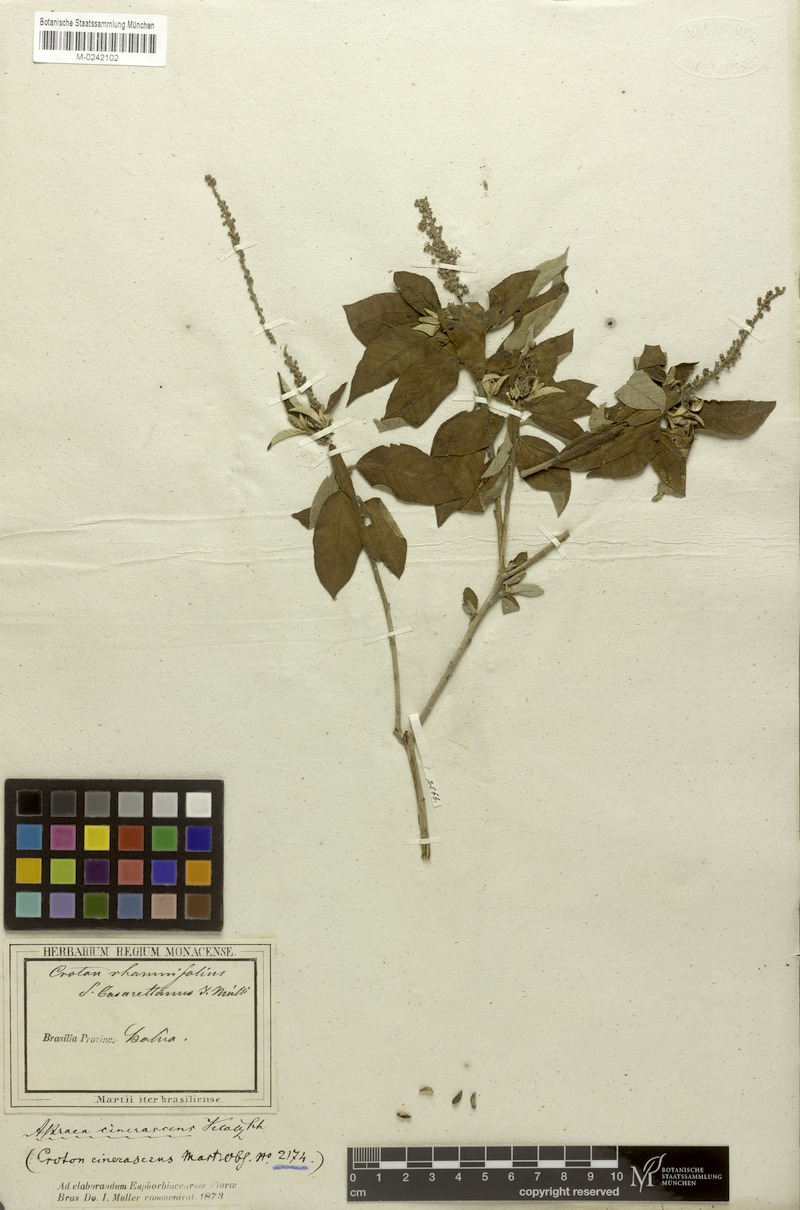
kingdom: Plantae
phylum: Tracheophyta
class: Magnoliopsida
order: Malpighiales
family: Euphorbiaceae
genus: Croton
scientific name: Croton heliotropiifolius
